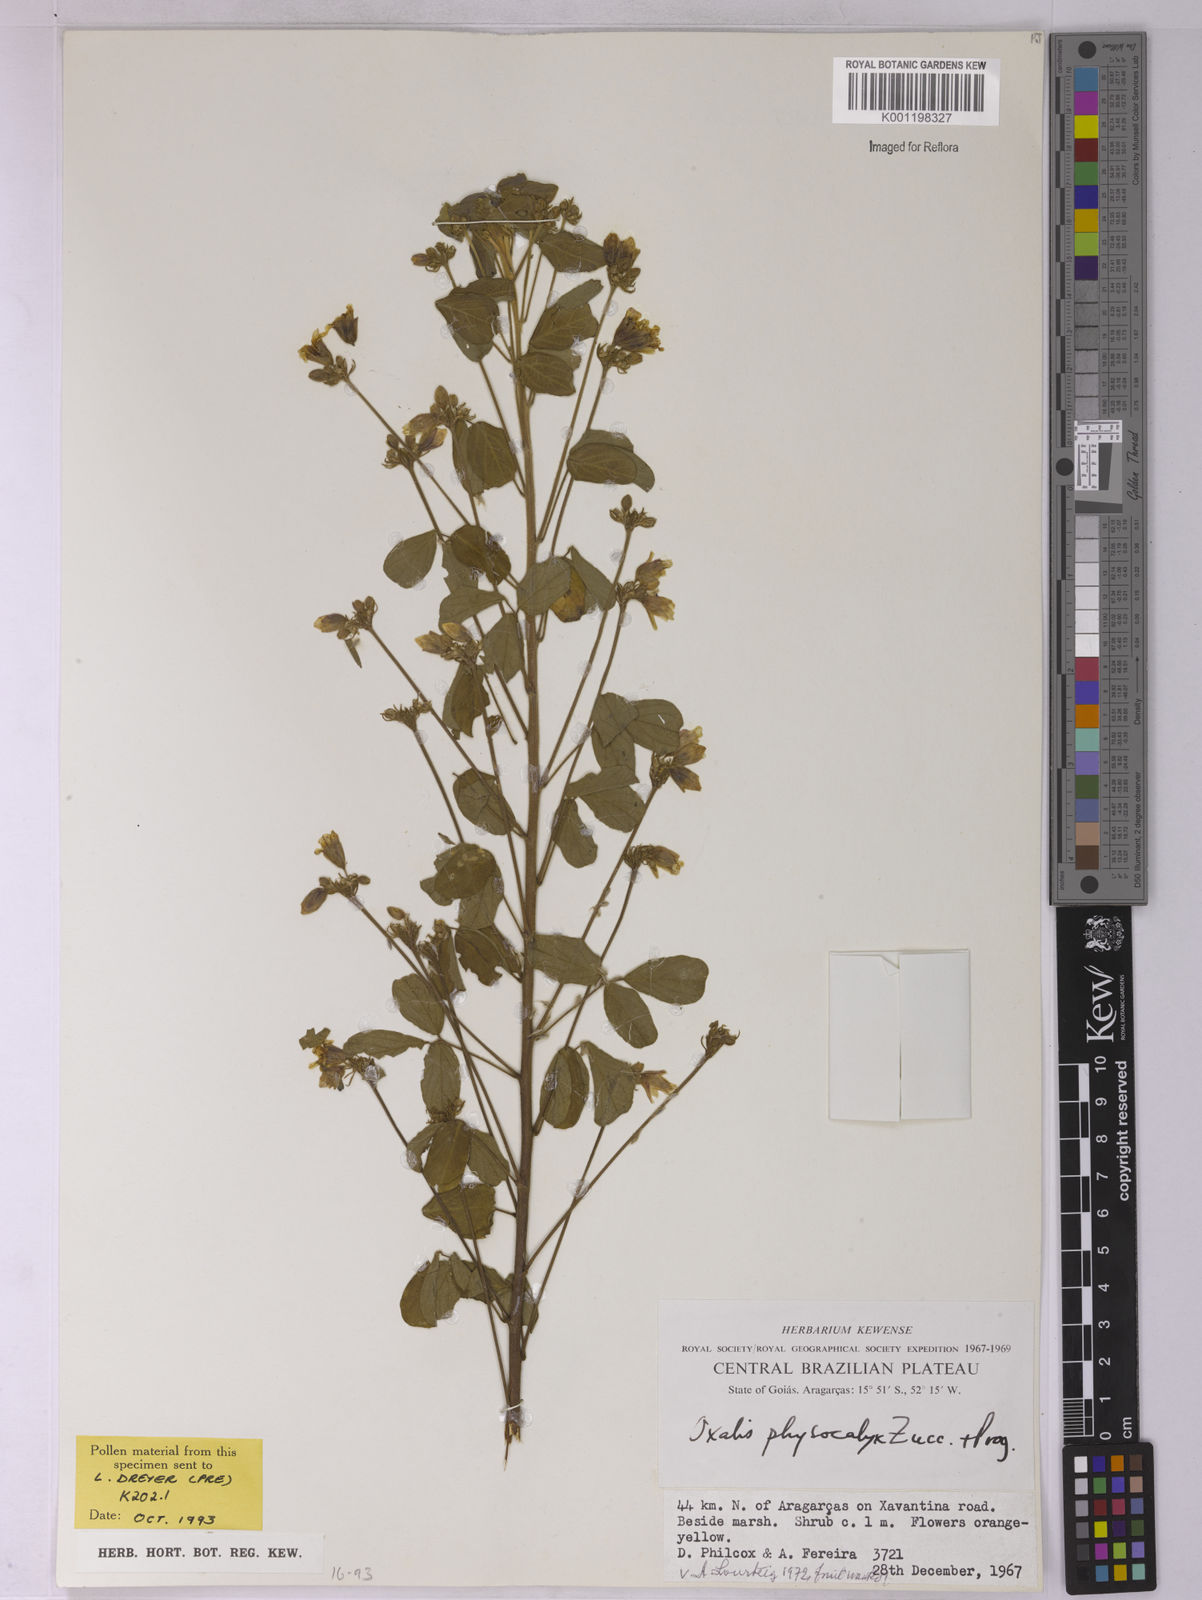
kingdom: Plantae
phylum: Tracheophyta
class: Magnoliopsida
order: Oxalidales
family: Oxalidaceae
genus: Oxalis
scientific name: Oxalis physocalyx
